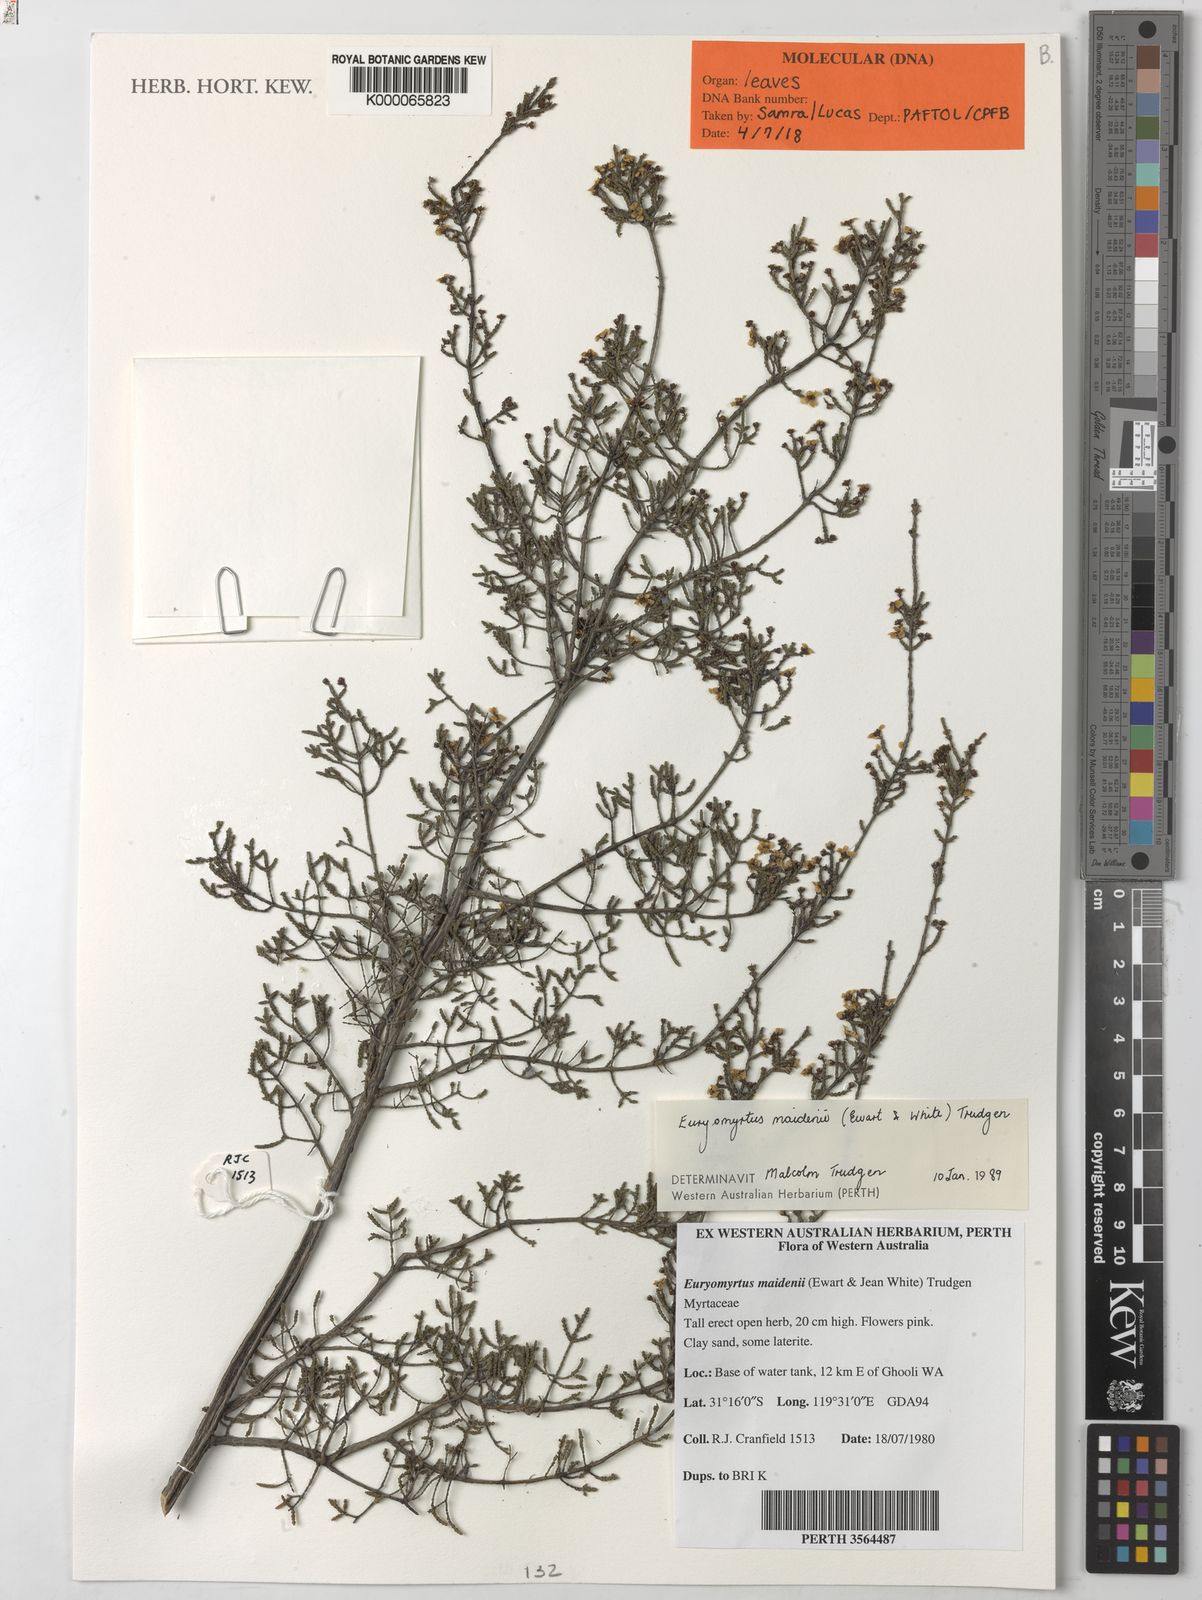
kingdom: Plantae
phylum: Tracheophyta
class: Magnoliopsida
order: Myrtales
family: Myrtaceae
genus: Euryomyrtus
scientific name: Euryomyrtus
